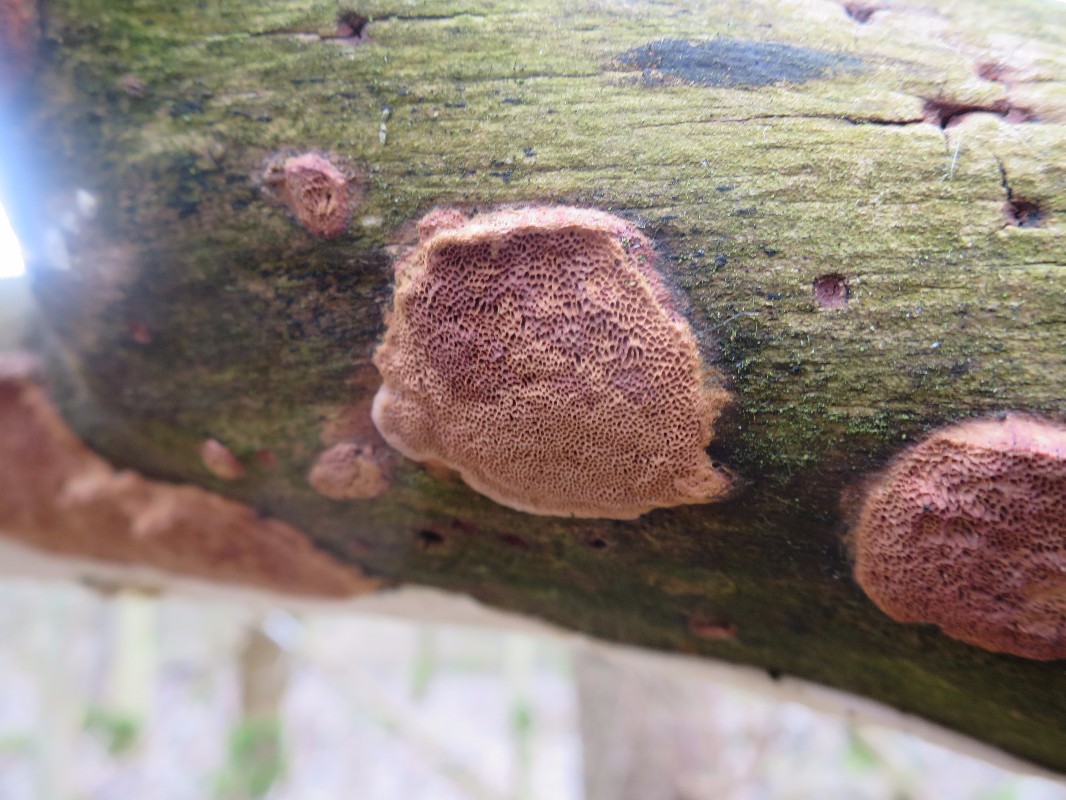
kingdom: Fungi
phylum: Basidiomycota
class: Agaricomycetes
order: Polyporales
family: Phanerochaetaceae
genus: Hapalopilus
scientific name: Hapalopilus rutilans
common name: rødlig okkerporesvamp
